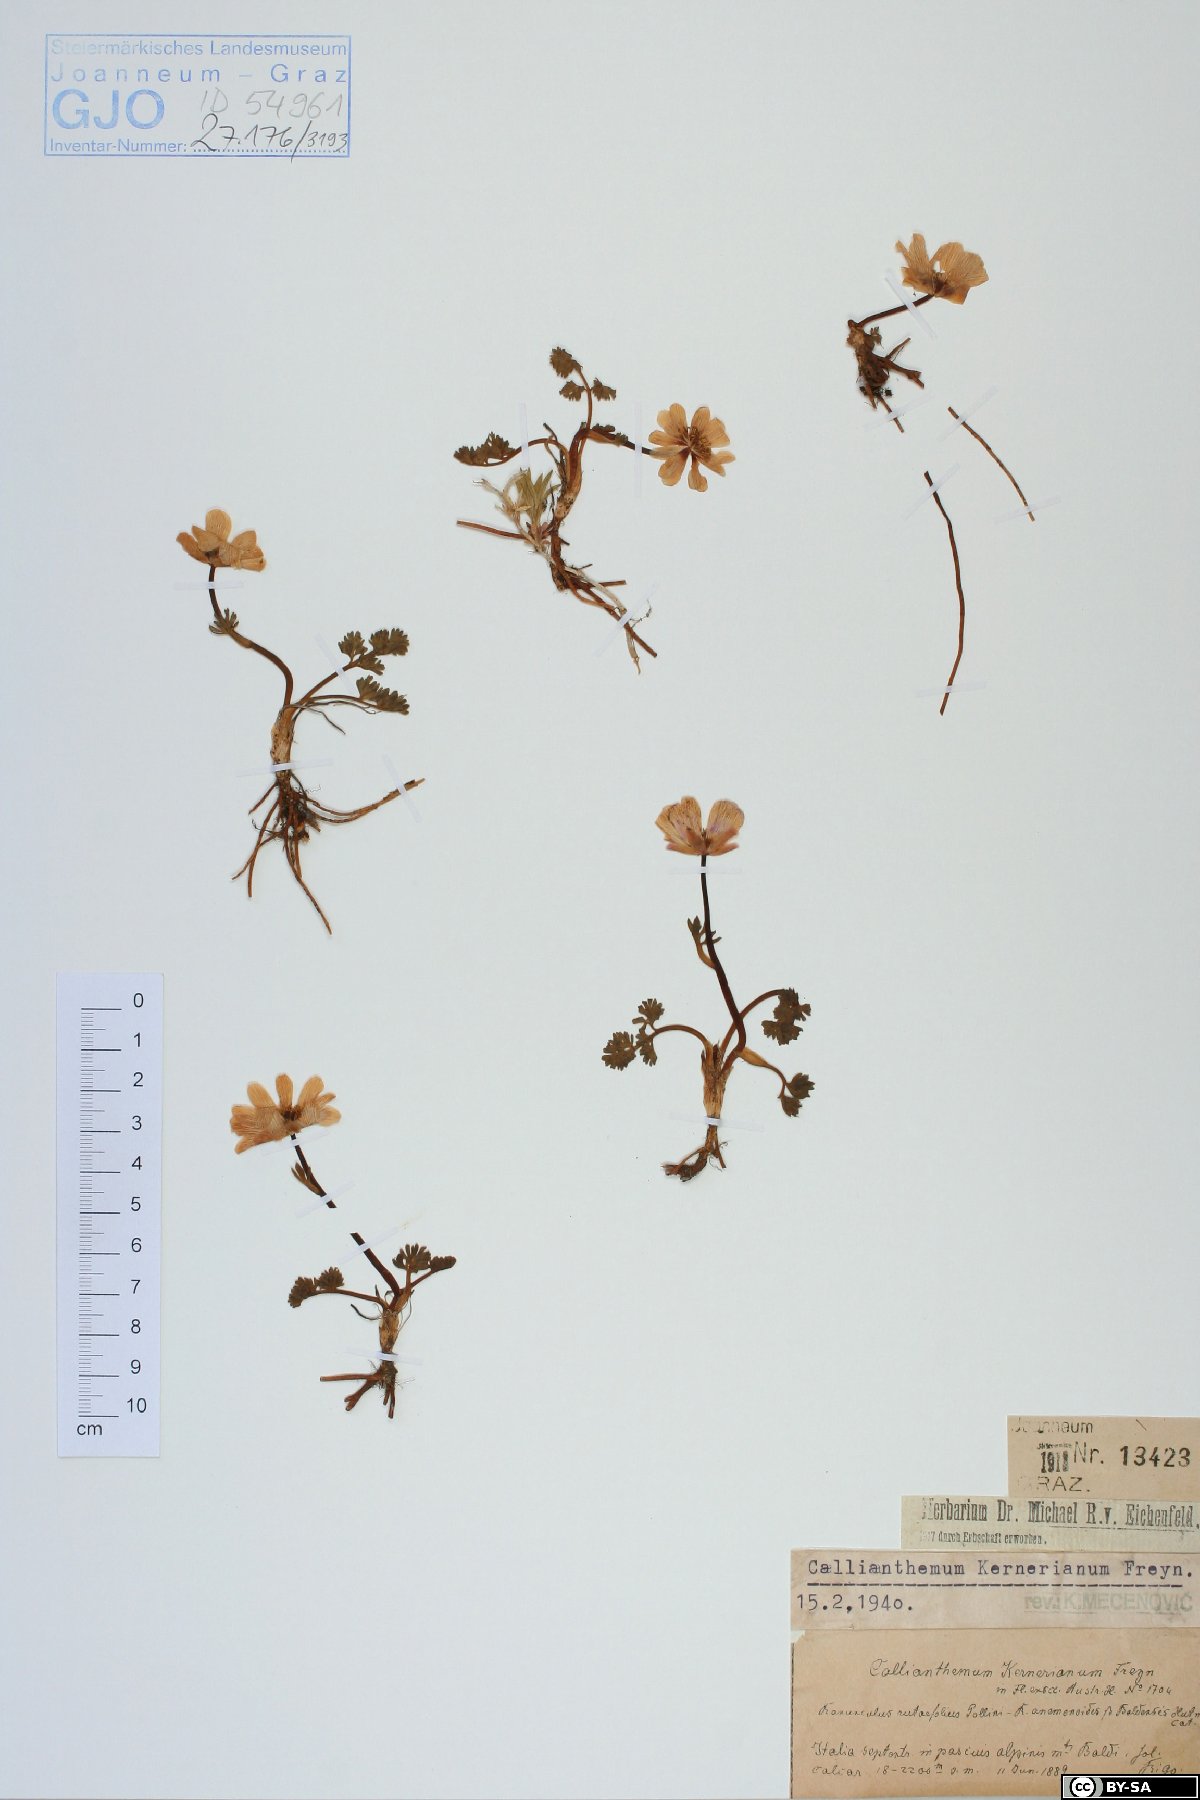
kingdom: Plantae
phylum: Tracheophyta
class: Magnoliopsida
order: Ranunculales
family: Ranunculaceae
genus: Callianthemum
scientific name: Callianthemum kernerianum
